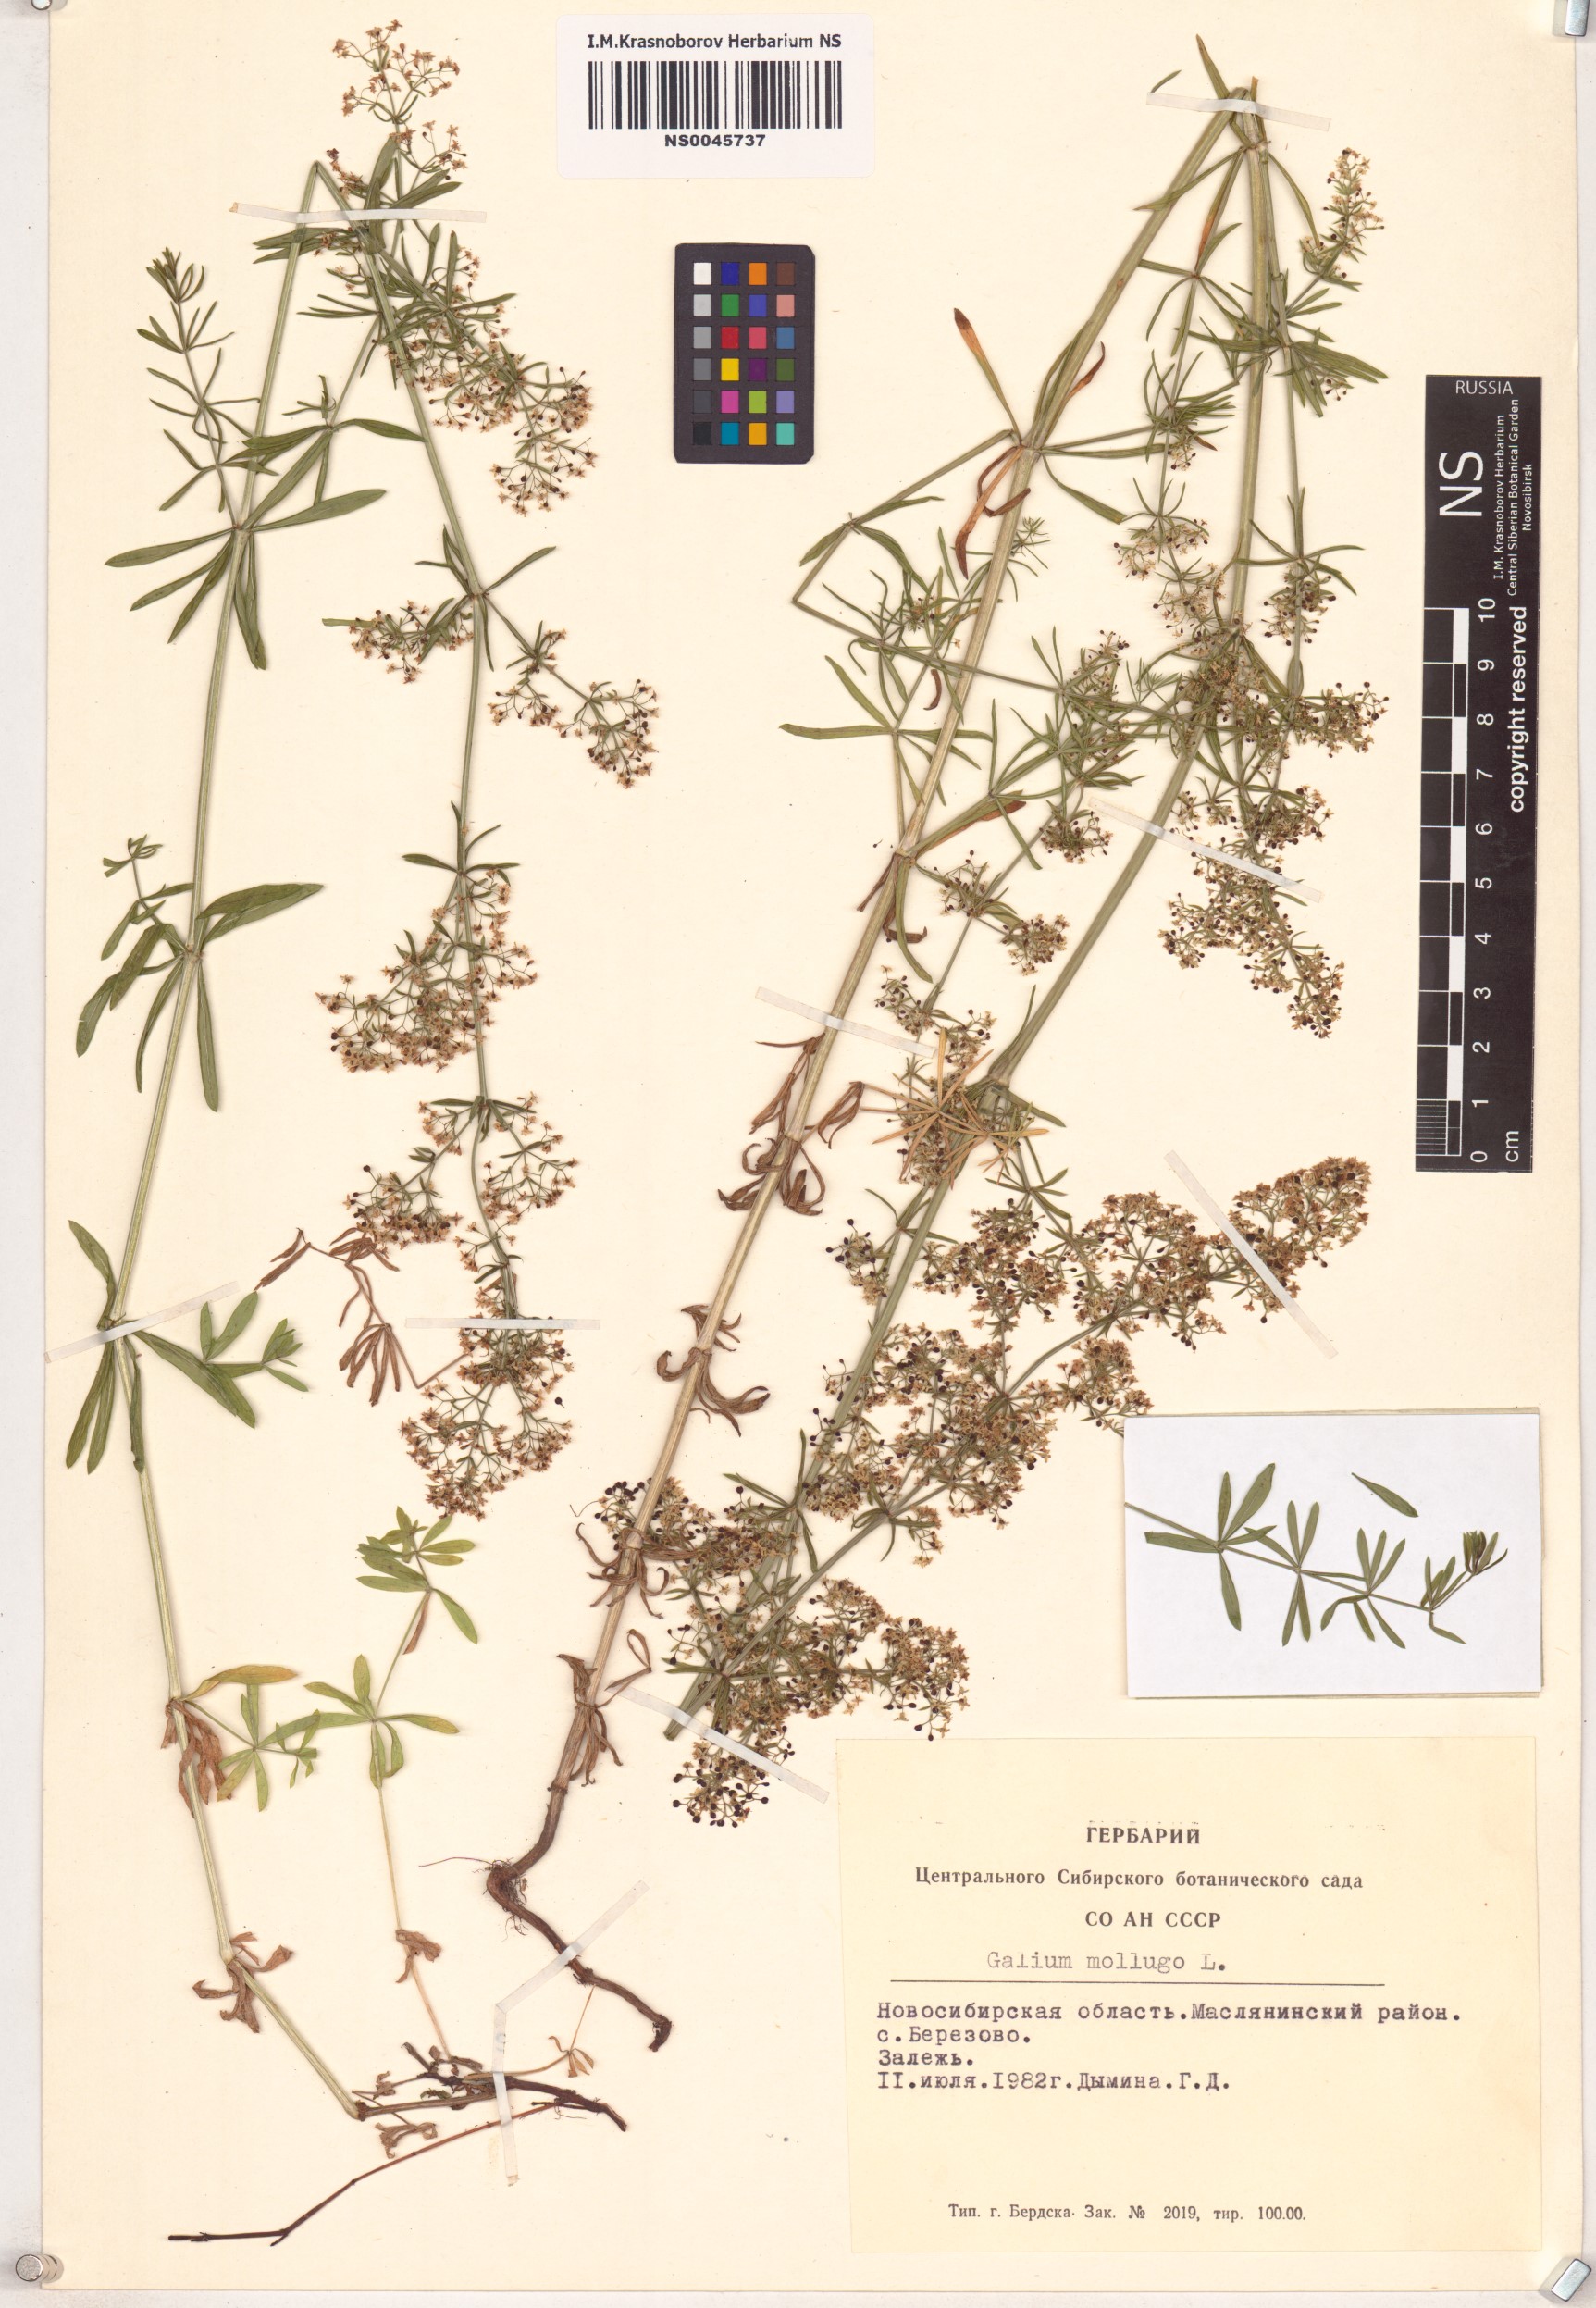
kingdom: Plantae
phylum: Tracheophyta
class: Magnoliopsida
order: Gentianales
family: Rubiaceae
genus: Galium
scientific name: Galium mollugo
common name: Hedge bedstraw
